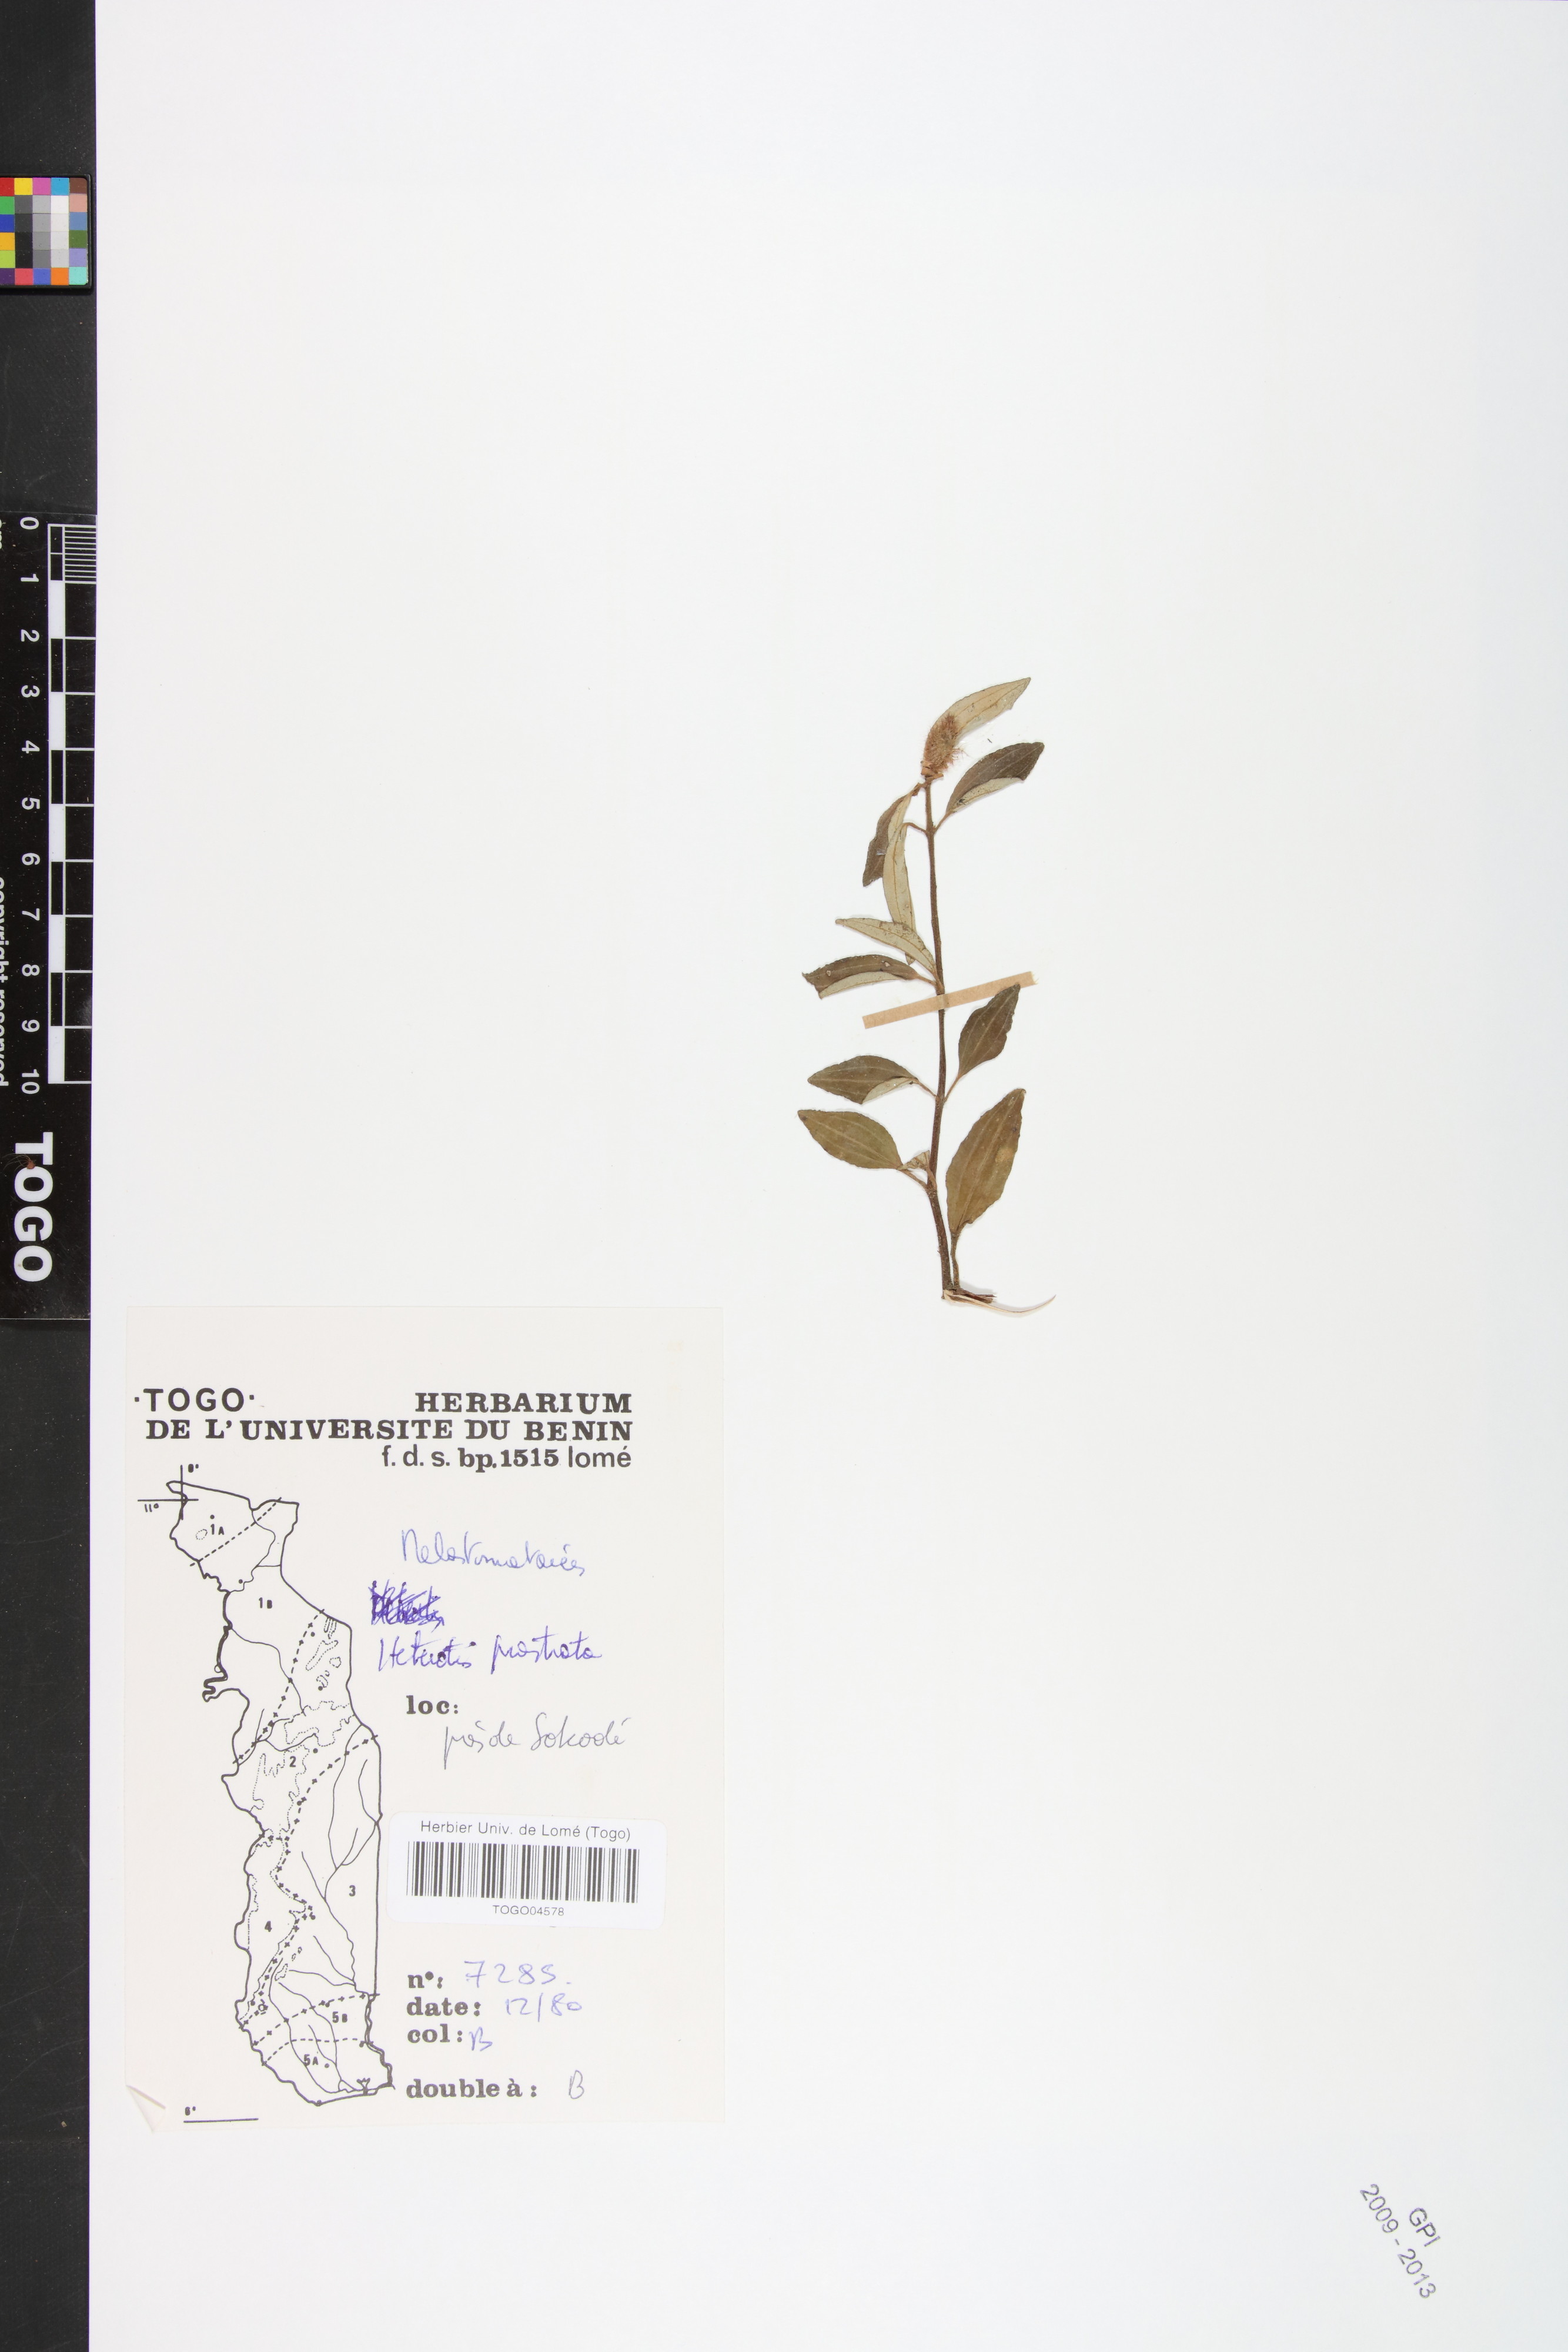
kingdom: Plantae
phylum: Tracheophyta
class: Magnoliopsida
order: Myrtales
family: Melastomataceae
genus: Heterotis
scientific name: Heterotis prostrata
